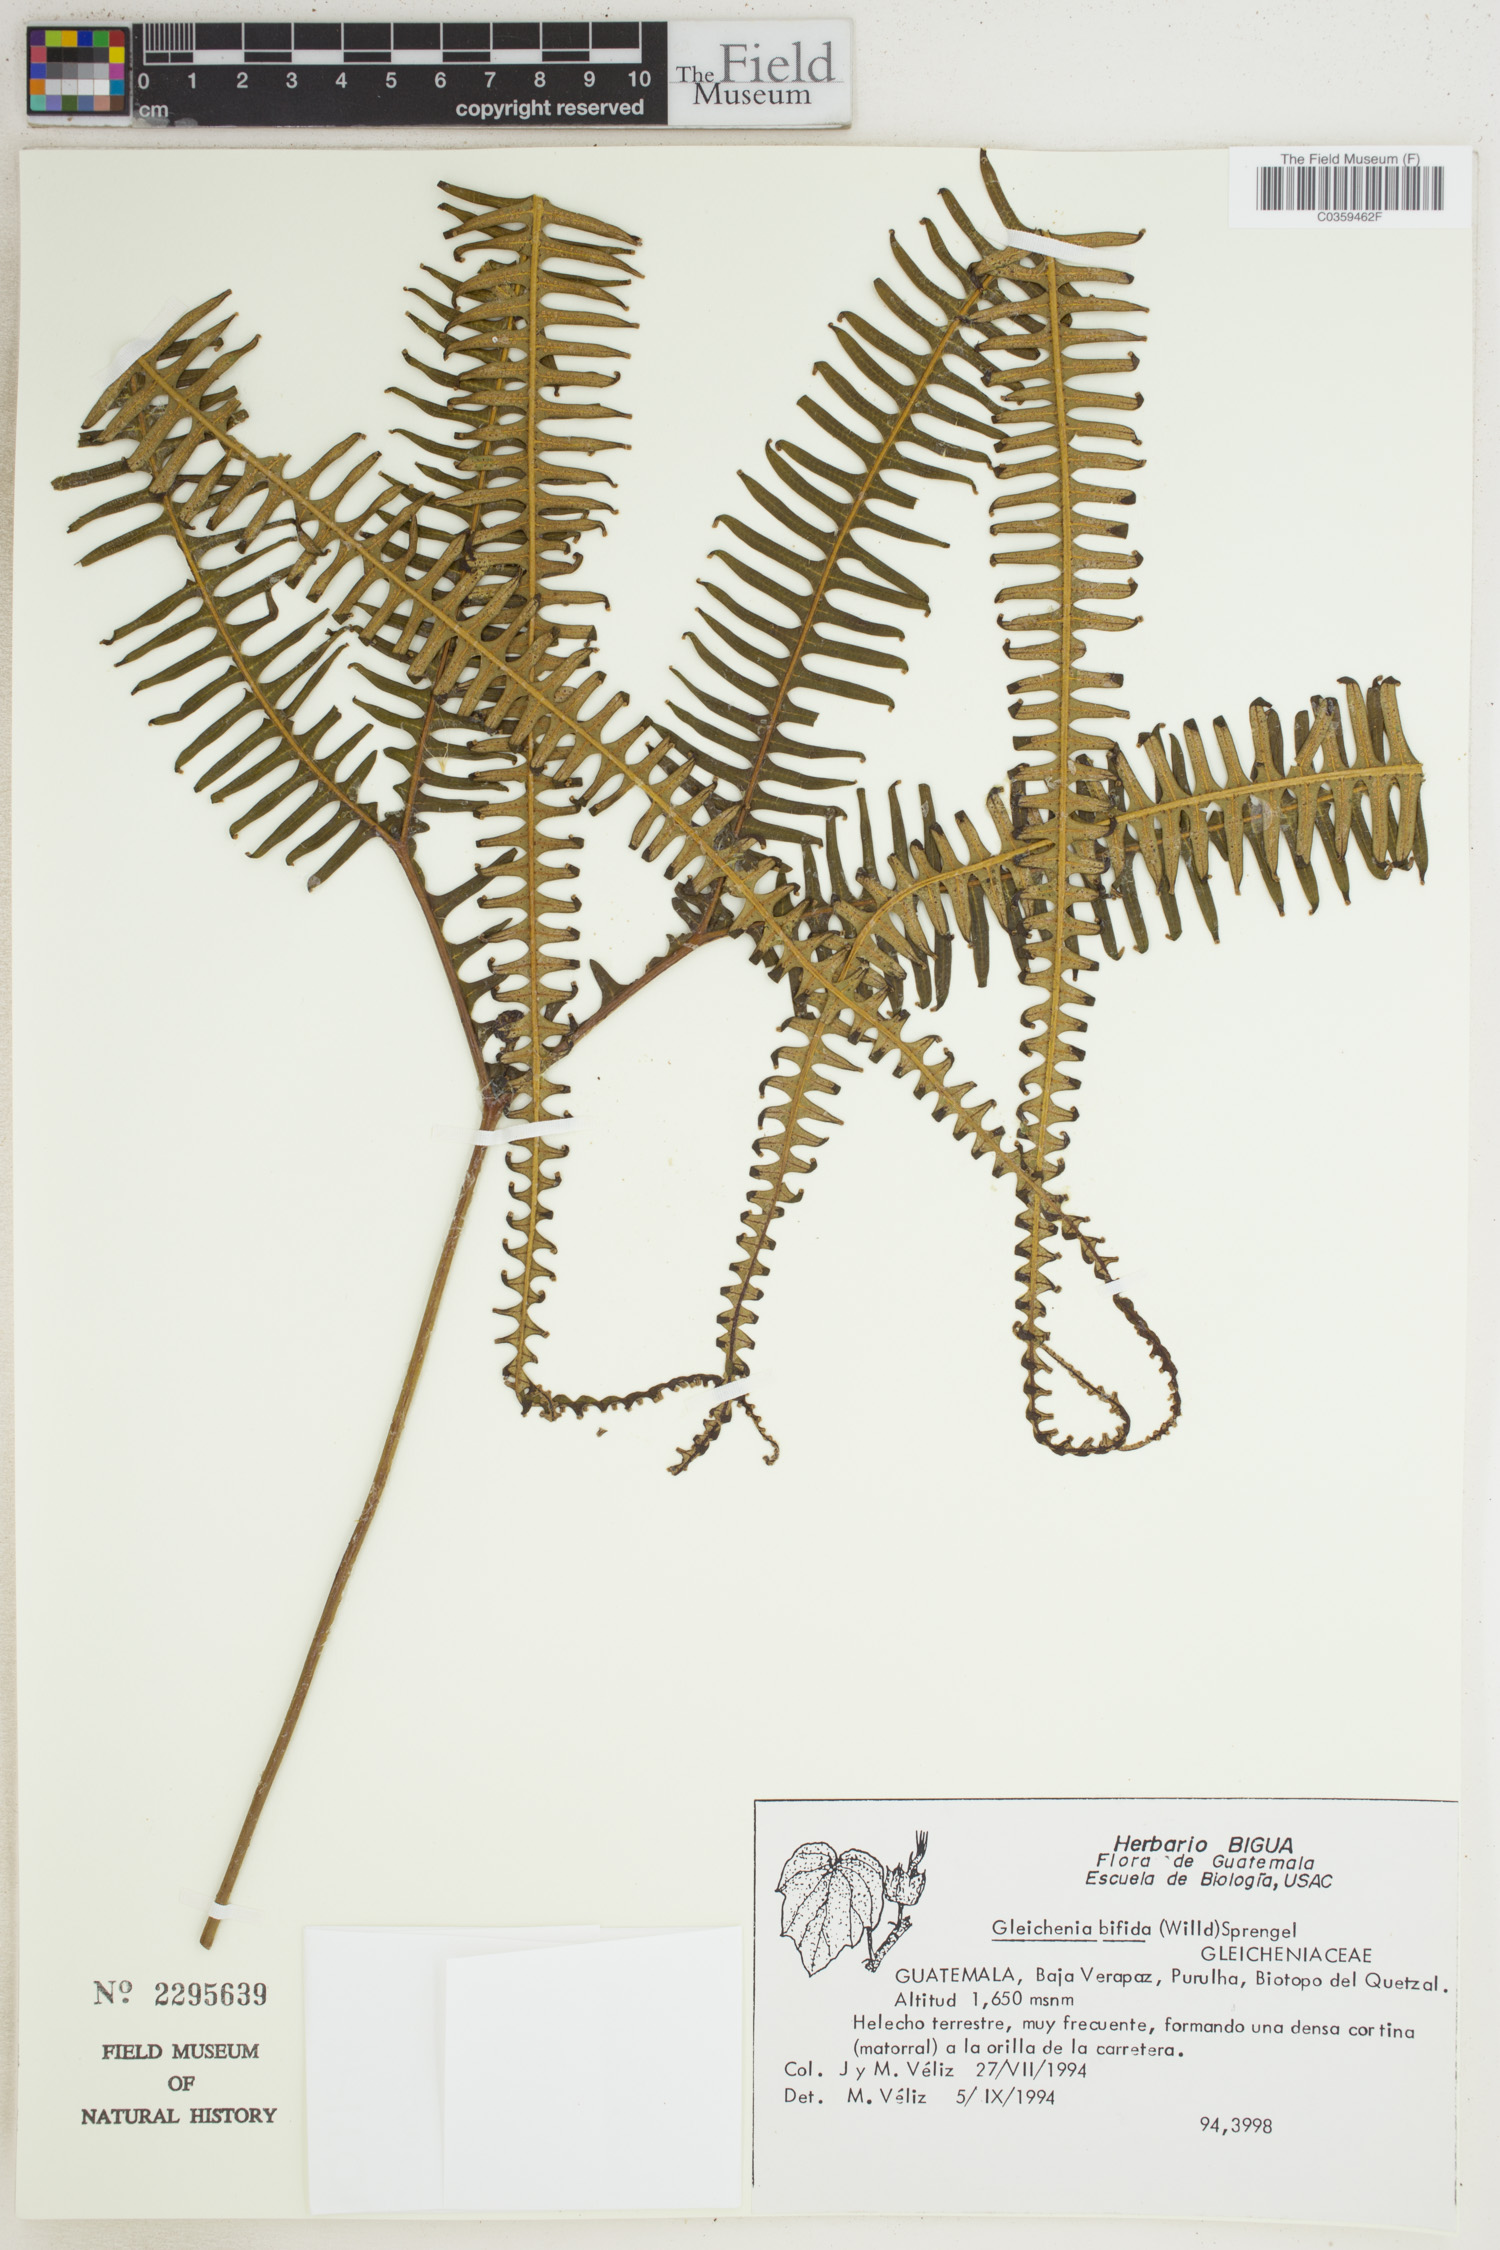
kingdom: Plantae
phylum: Tracheophyta
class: Polypodiopsida
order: Gleicheniales
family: Gleicheniaceae
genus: Sticherus
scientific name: Sticherus bifidus
